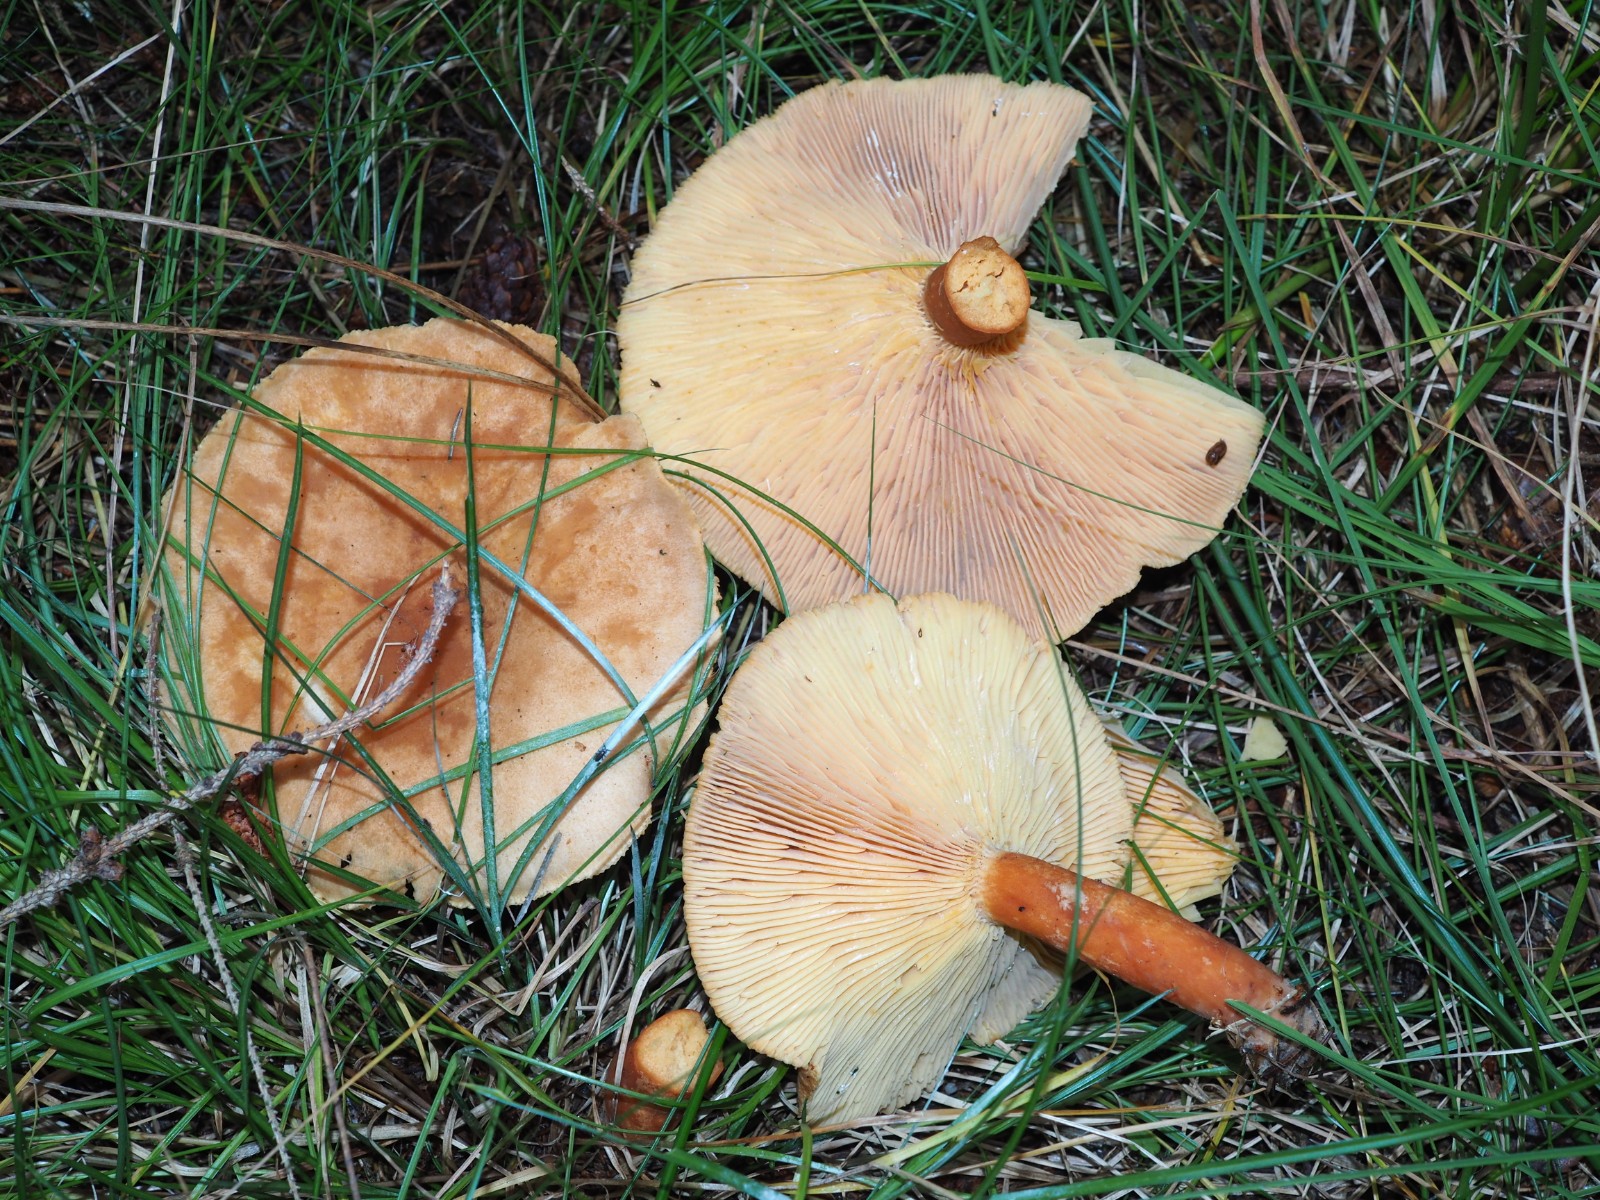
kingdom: Fungi
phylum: Basidiomycota
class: Agaricomycetes
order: Russulales
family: Russulaceae
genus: Lactarius
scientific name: Lactarius helvus
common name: mose-mælkehat
